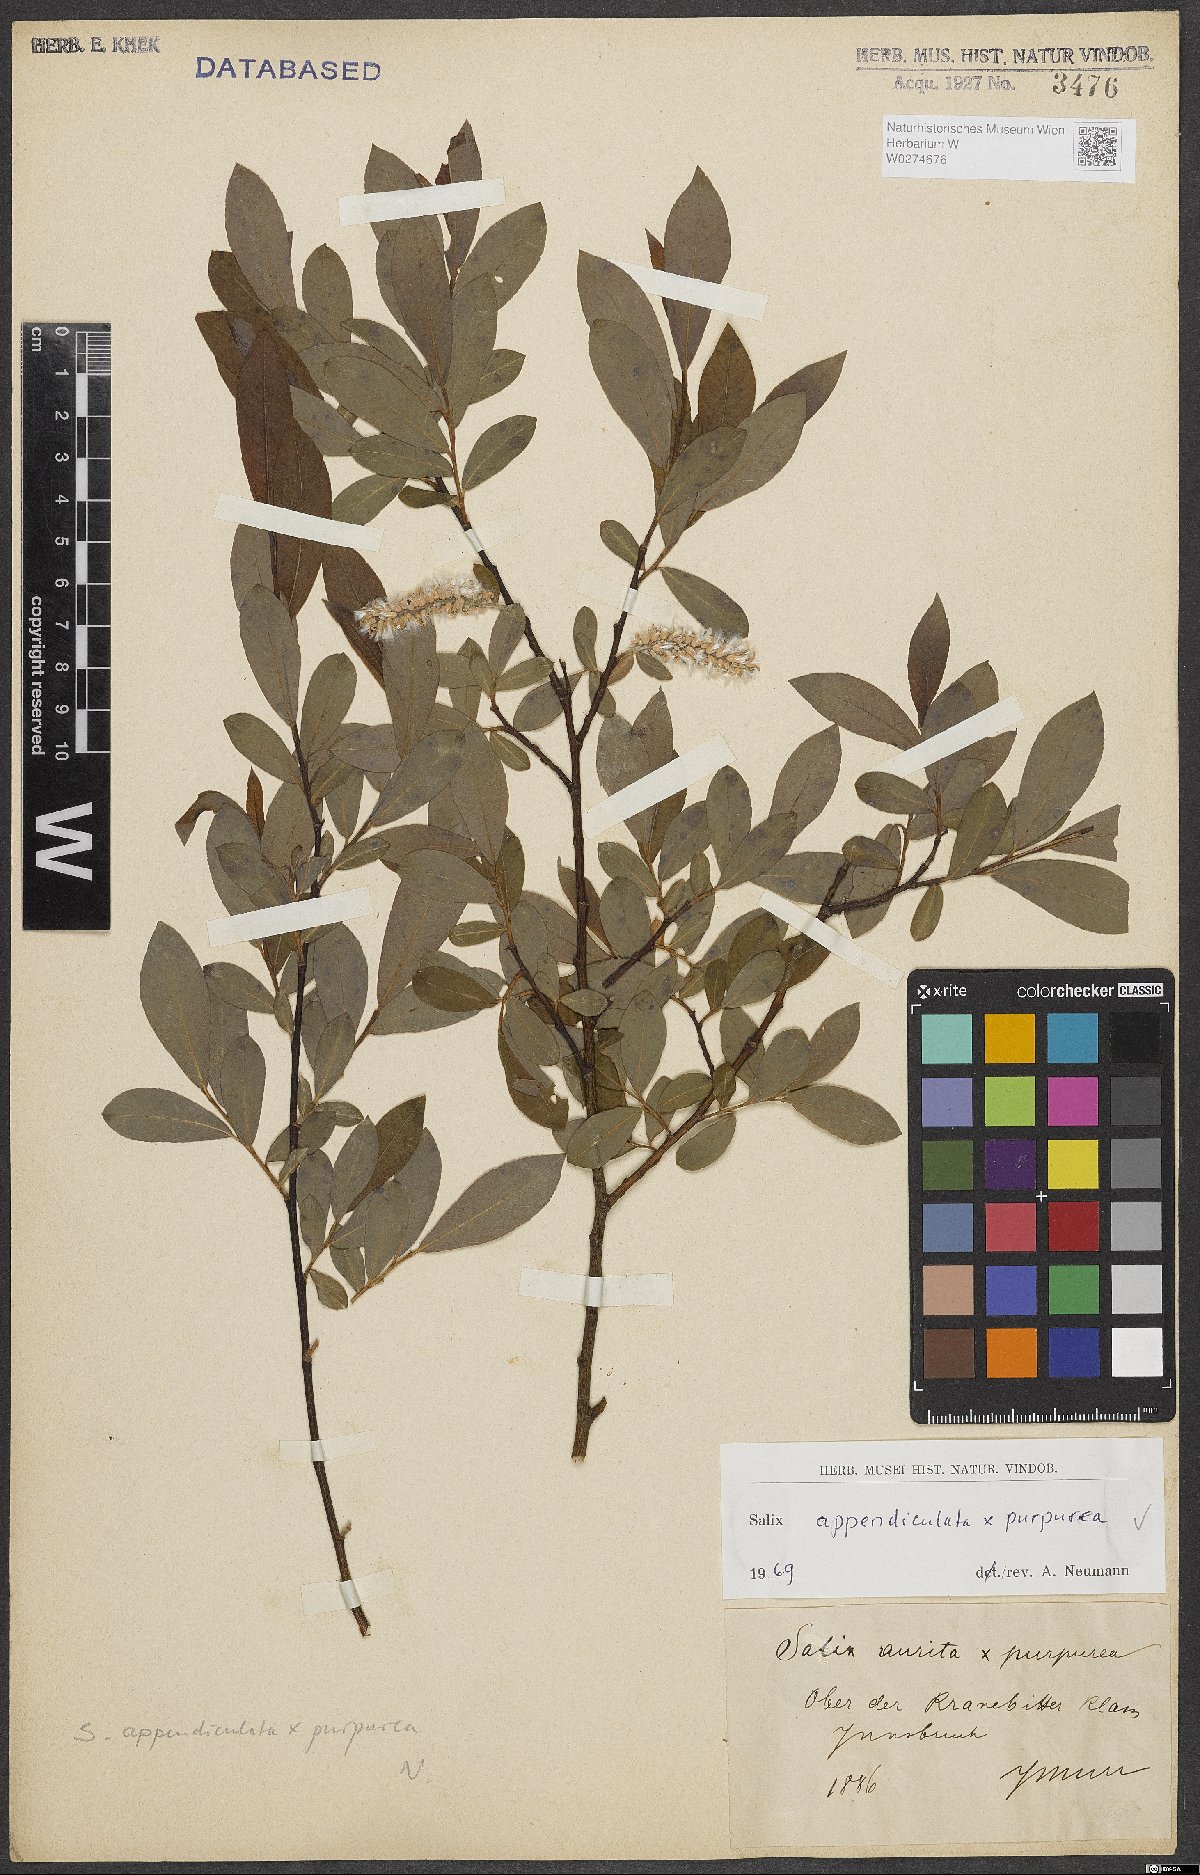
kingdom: Plantae
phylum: Tracheophyta
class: Magnoliopsida
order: Malpighiales
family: Salicaceae
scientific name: Salicaceae
